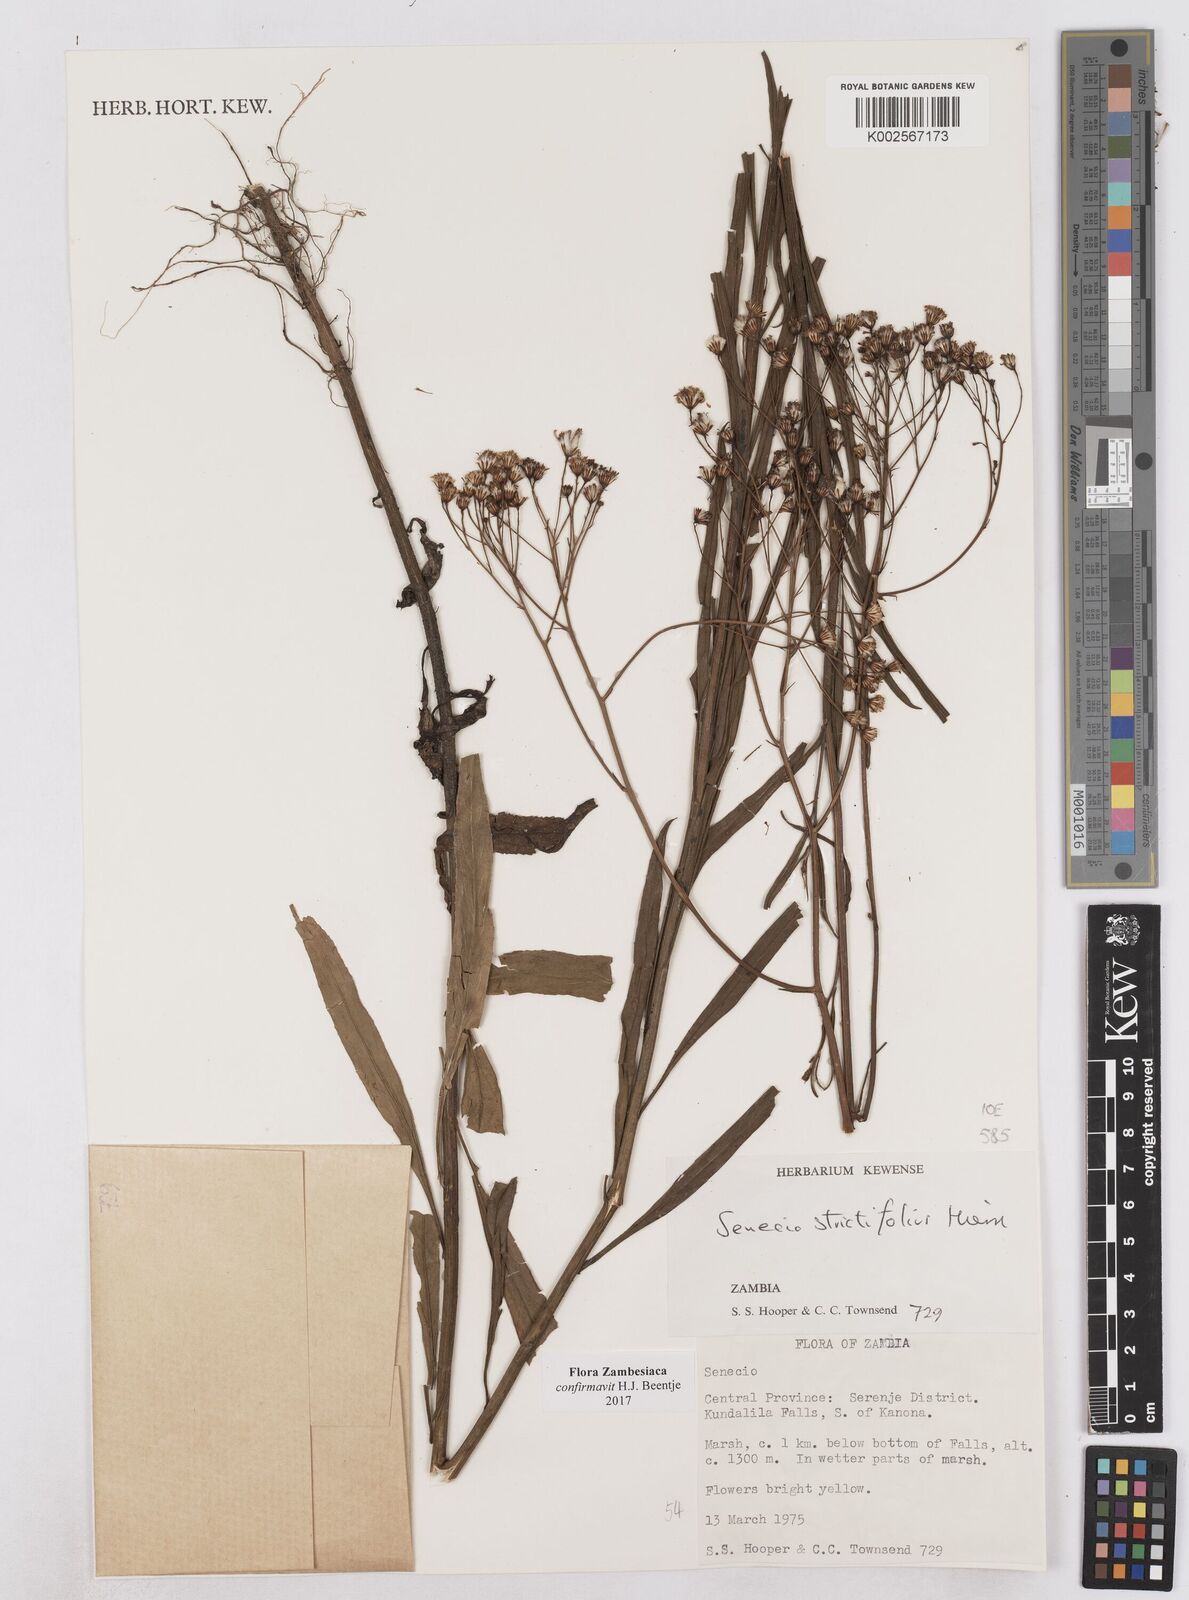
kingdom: Plantae
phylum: Tracheophyta
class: Magnoliopsida
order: Asterales
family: Asteraceae
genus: Senecio
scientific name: Senecio strictifolius
